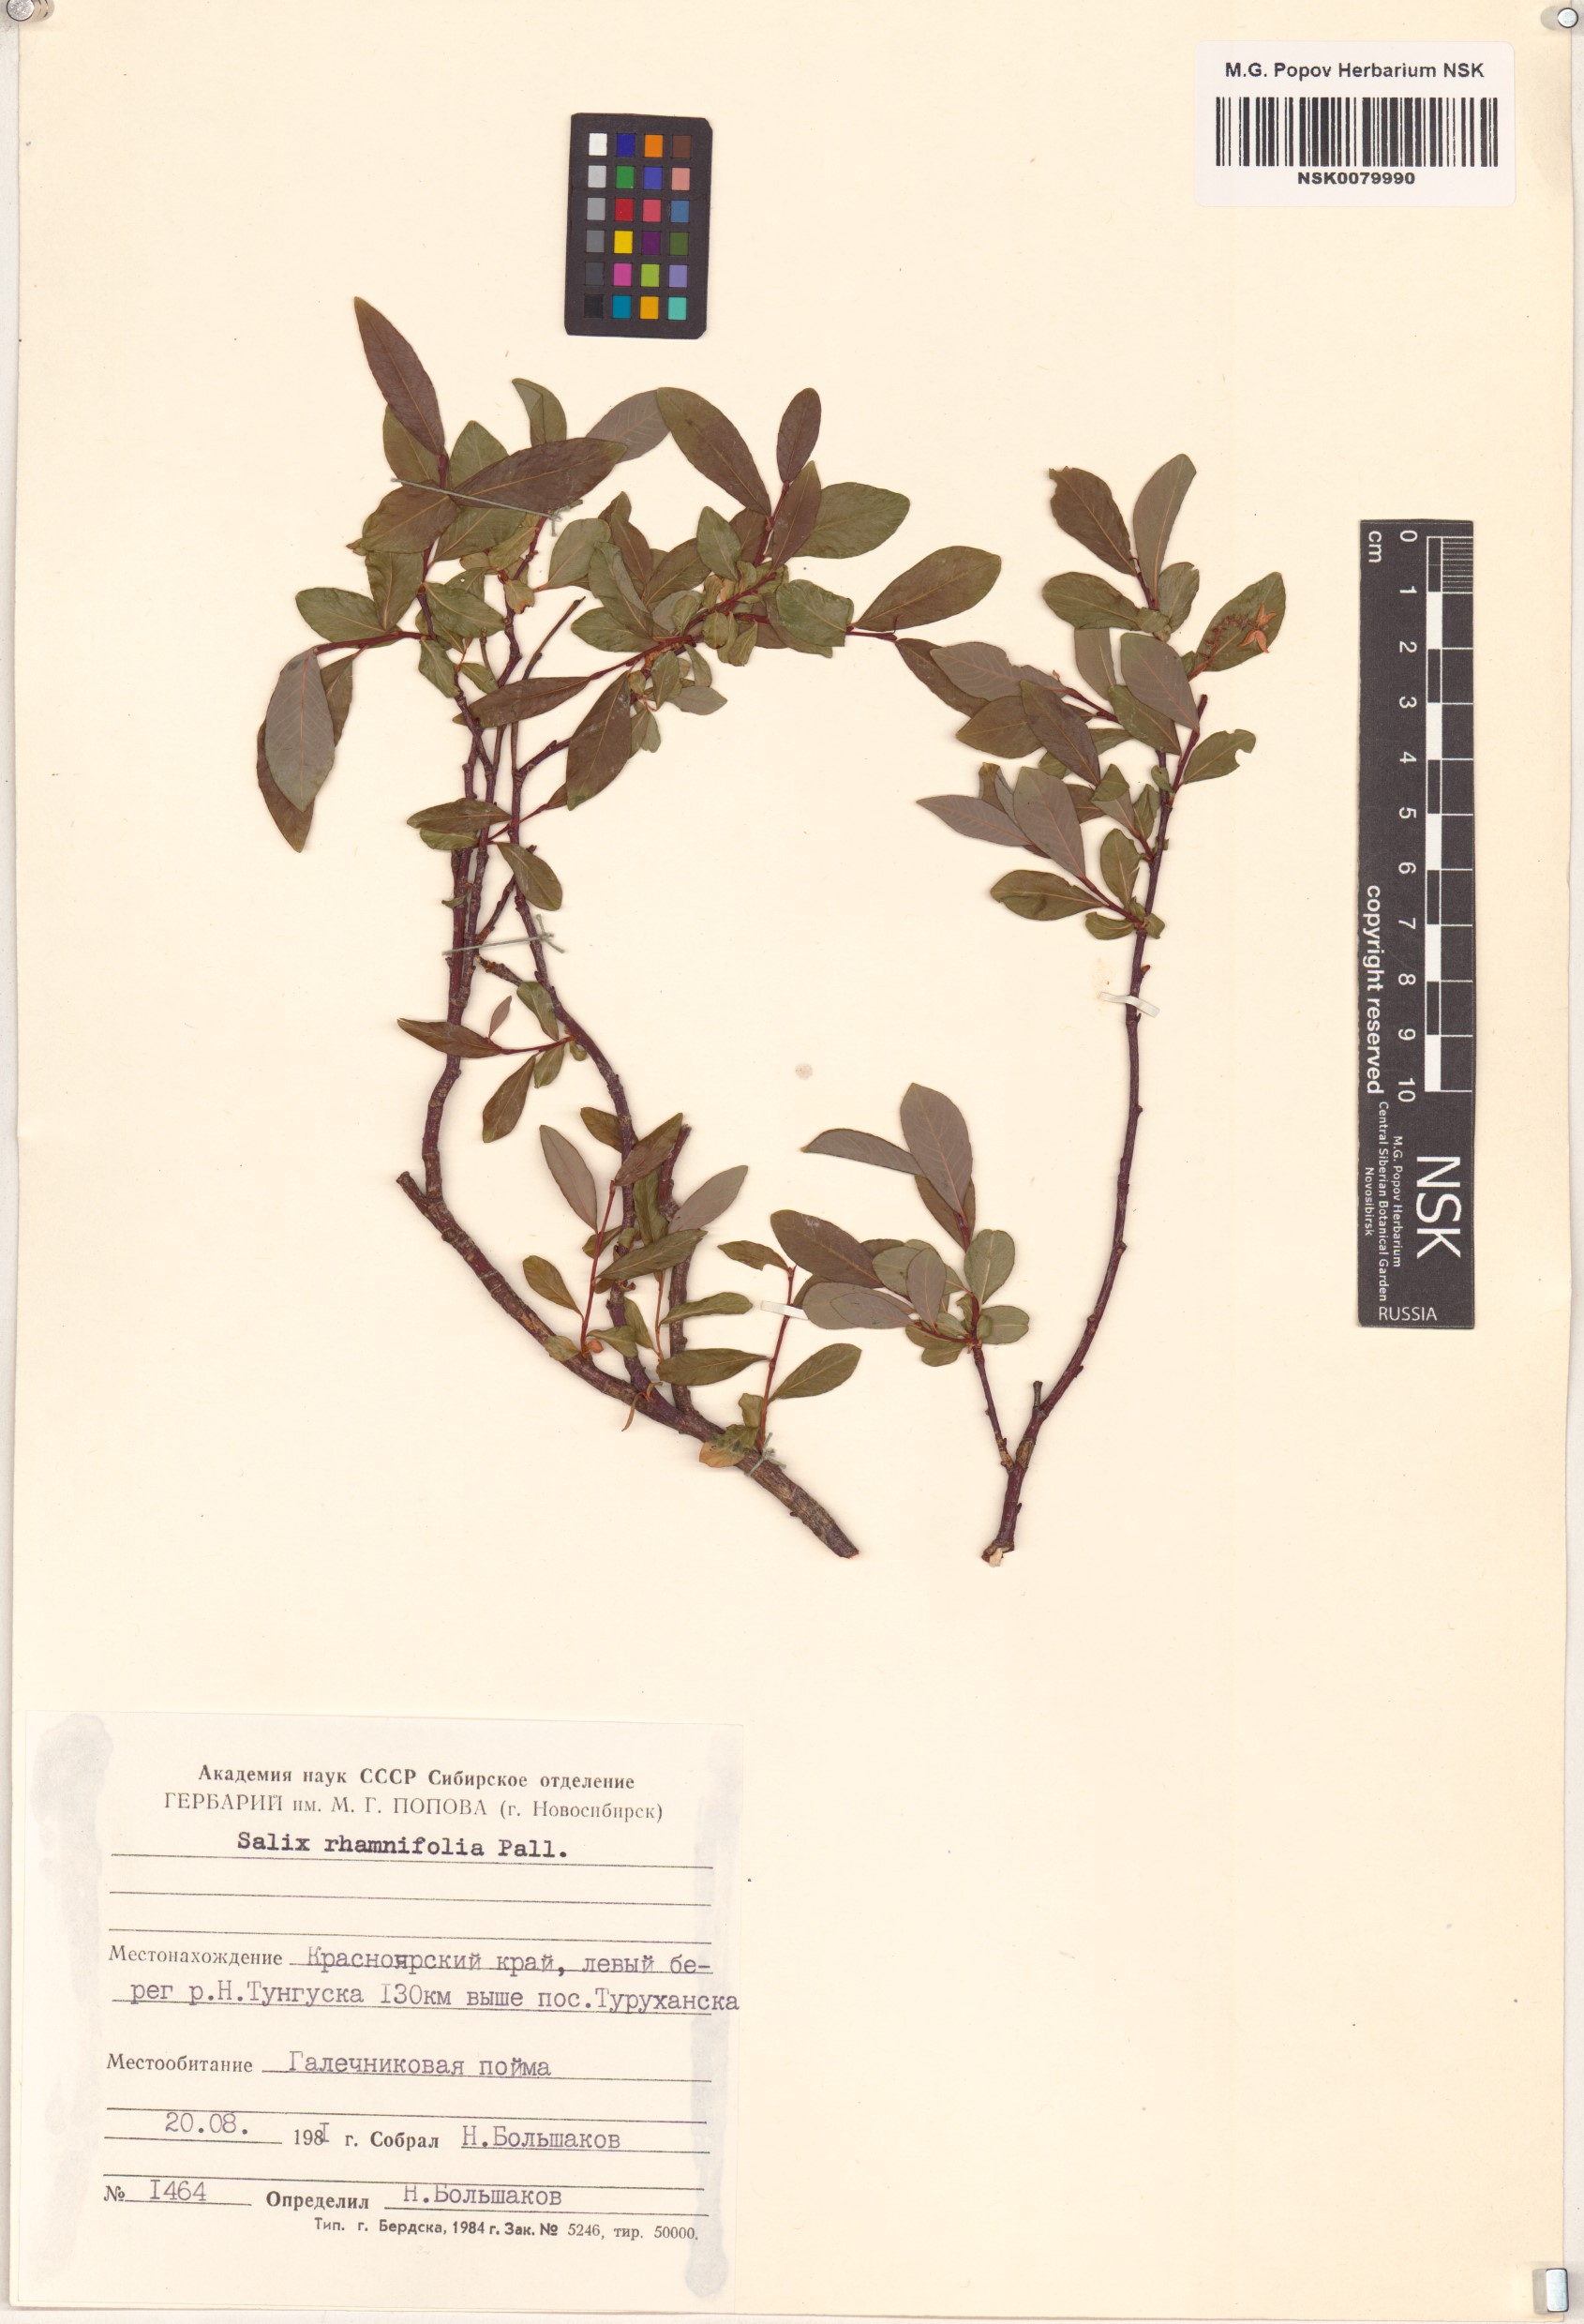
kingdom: Plantae
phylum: Tracheophyta
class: Magnoliopsida
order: Malpighiales
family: Salicaceae
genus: Salix
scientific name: Salix rhamnifolia
